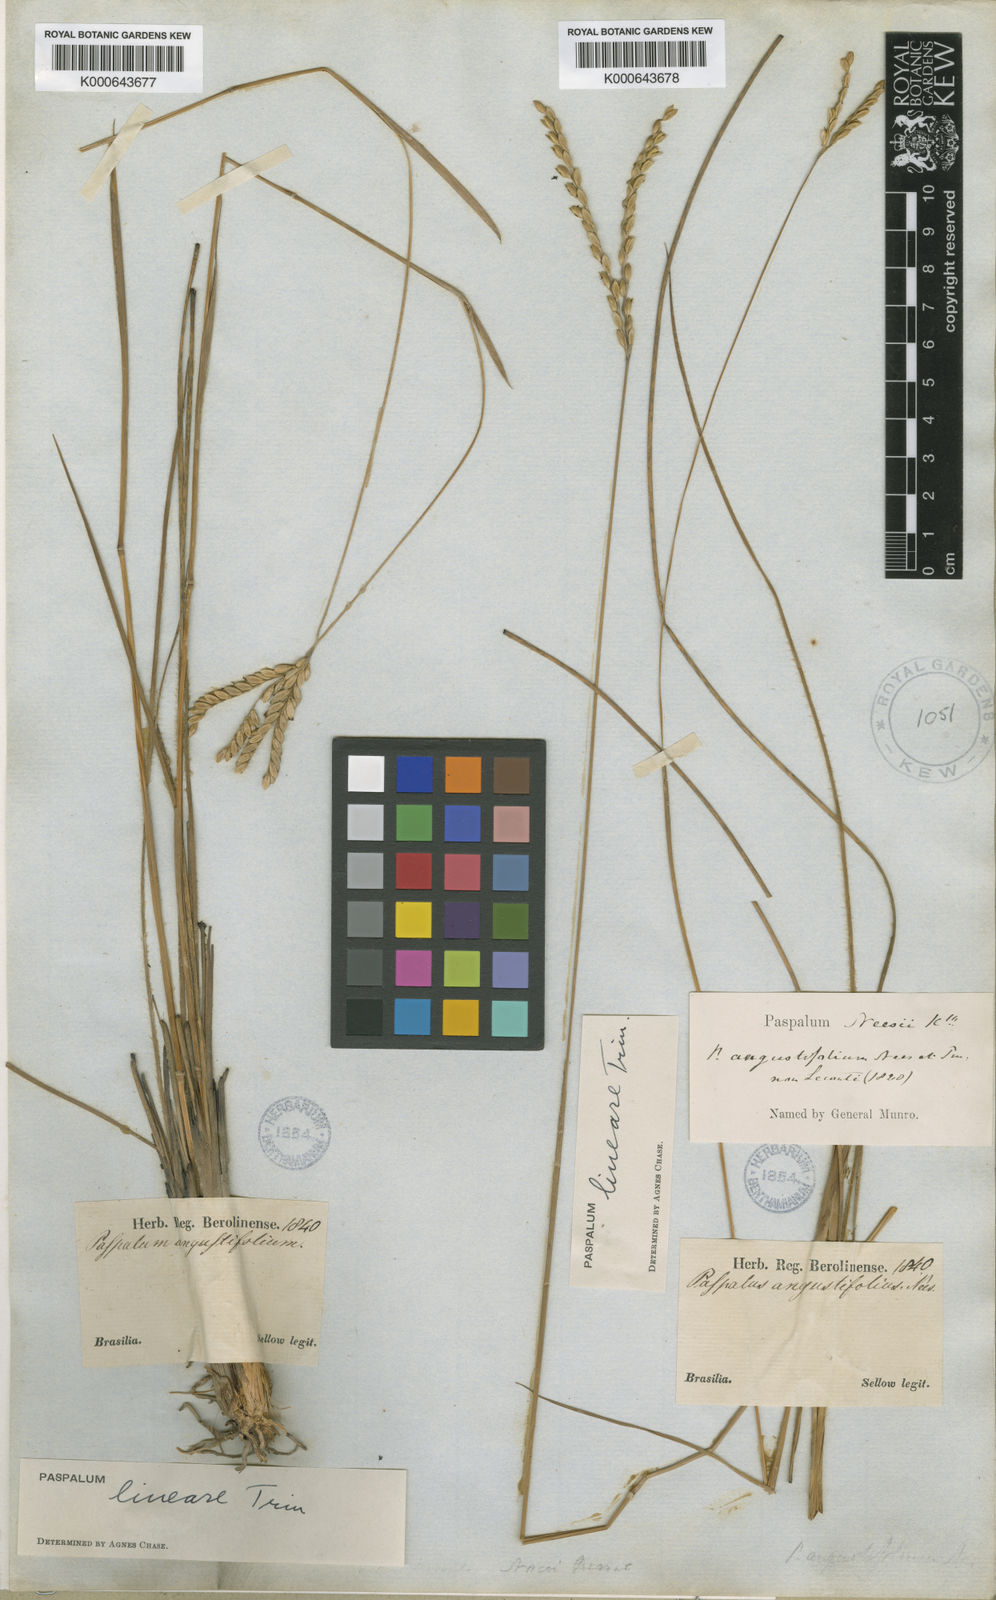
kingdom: Plantae
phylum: Tracheophyta
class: Liliopsida
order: Poales
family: Poaceae
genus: Paspalum
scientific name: Paspalum lineare
